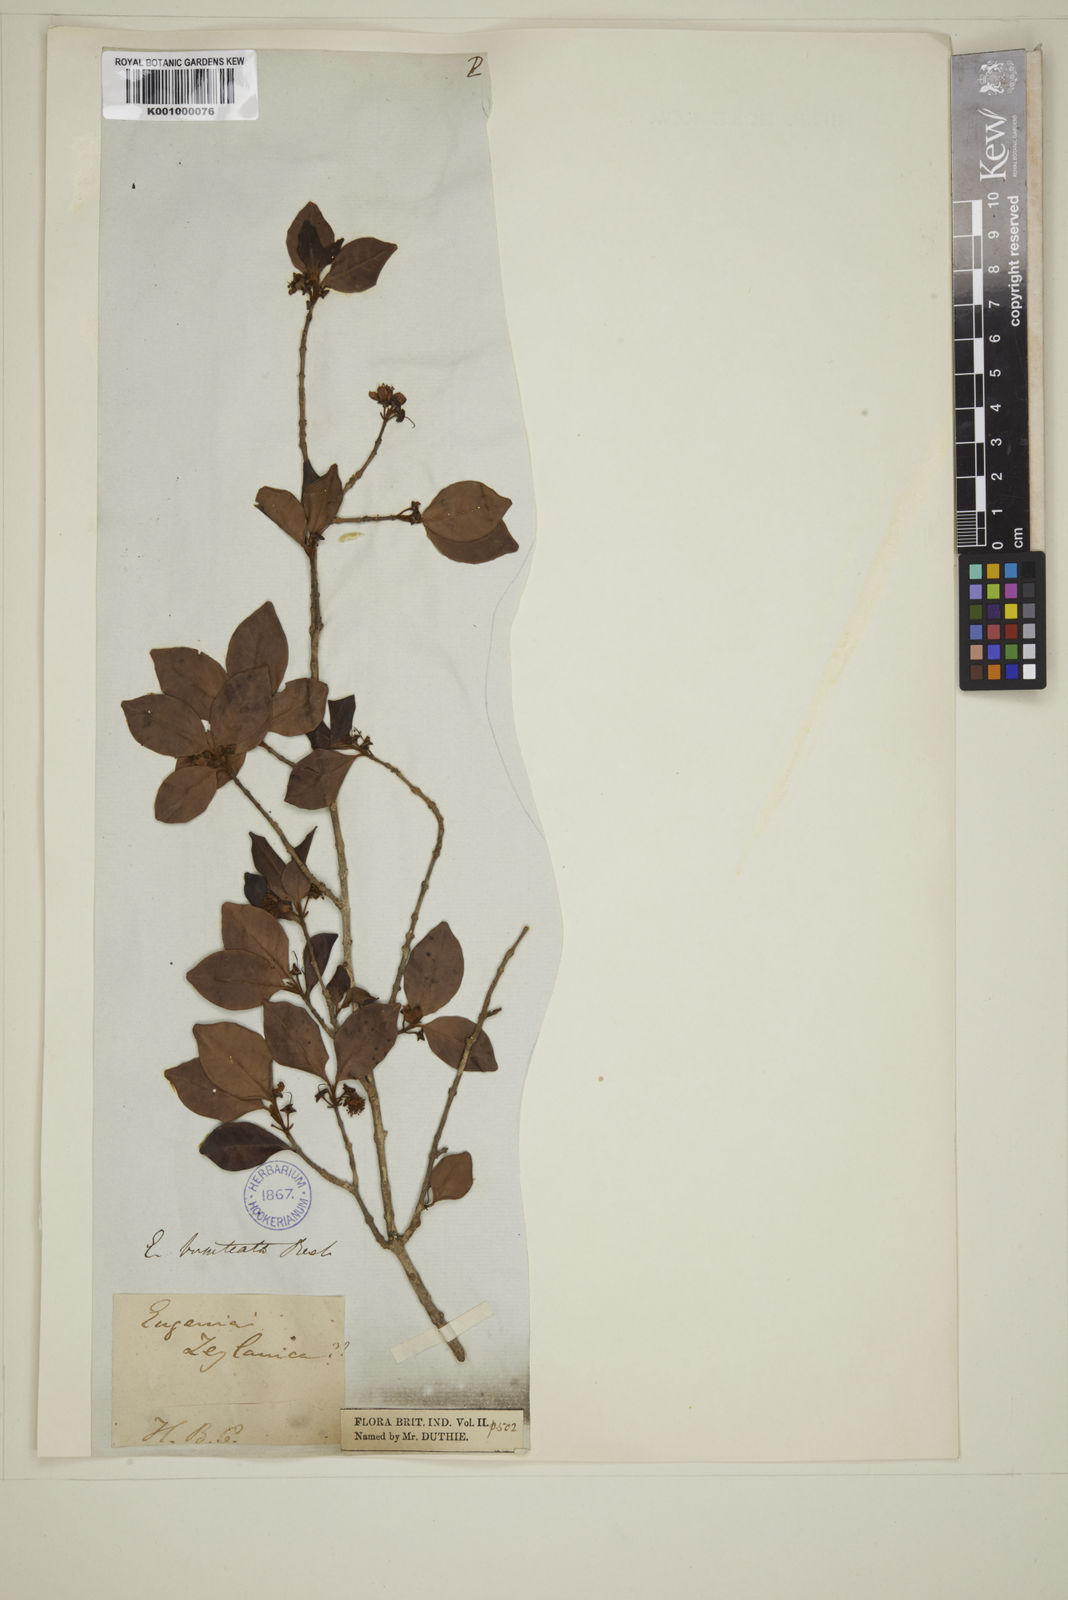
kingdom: Plantae
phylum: Tracheophyta
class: Magnoliopsida
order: Myrtales
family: Myrtaceae
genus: Myrcia
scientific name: Myrcia bracteata
